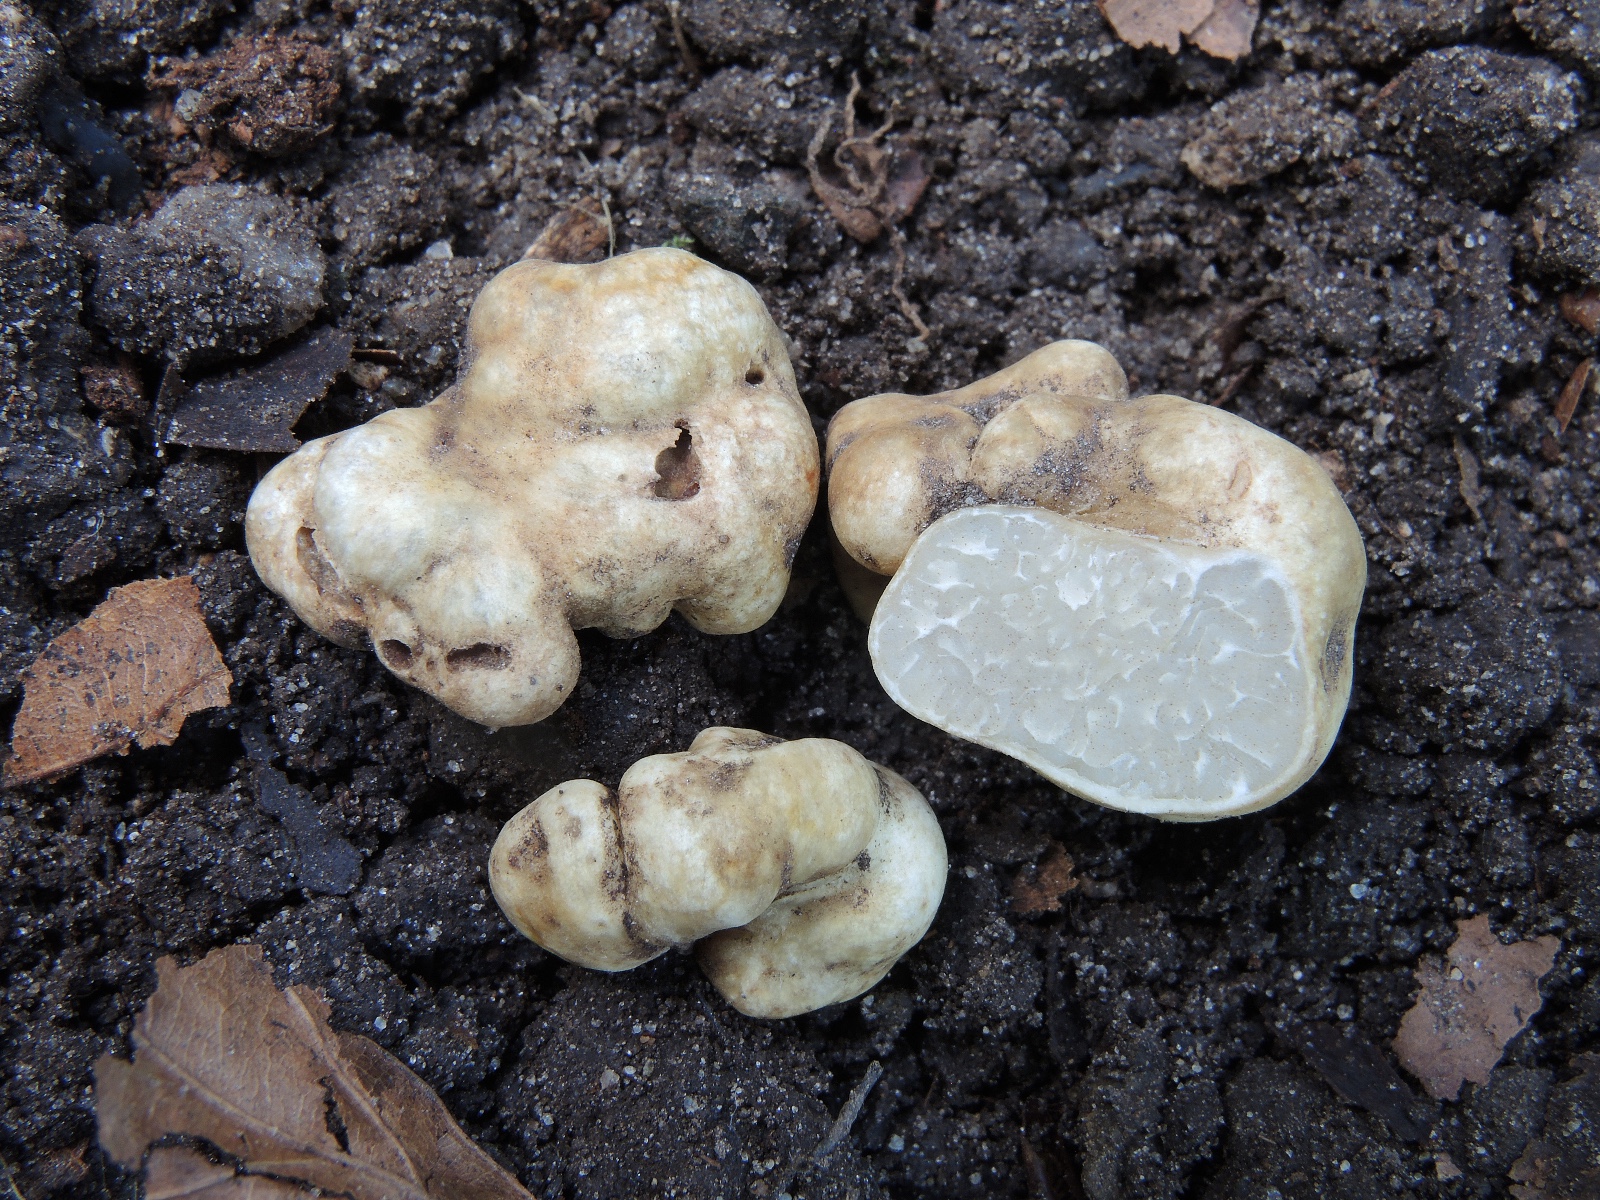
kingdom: Fungi
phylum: Ascomycota
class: Pezizomycetes
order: Pezizales
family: Tuberaceae
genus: Tuber
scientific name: Tuber maculatum
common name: plettet trøffel
